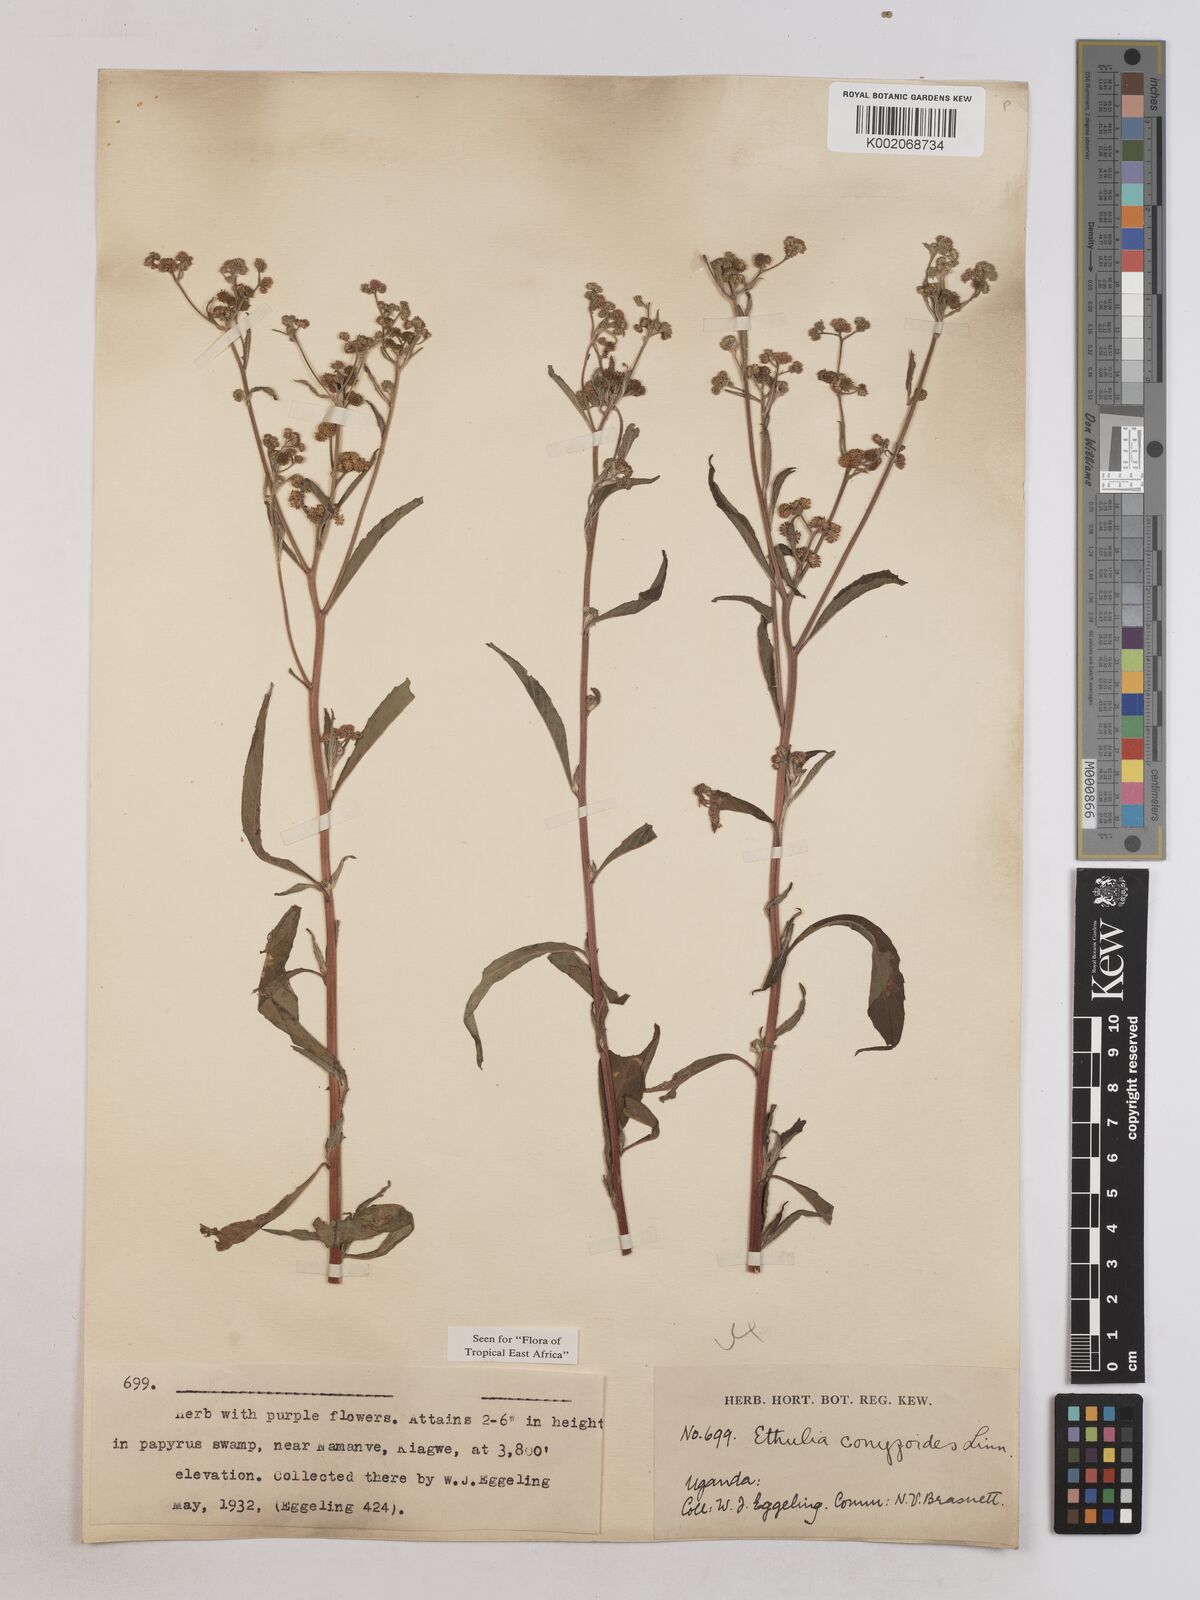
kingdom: Plantae
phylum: Tracheophyta
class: Magnoliopsida
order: Asterales
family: Asteraceae
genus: Ethulia
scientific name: Ethulia conyzoides
